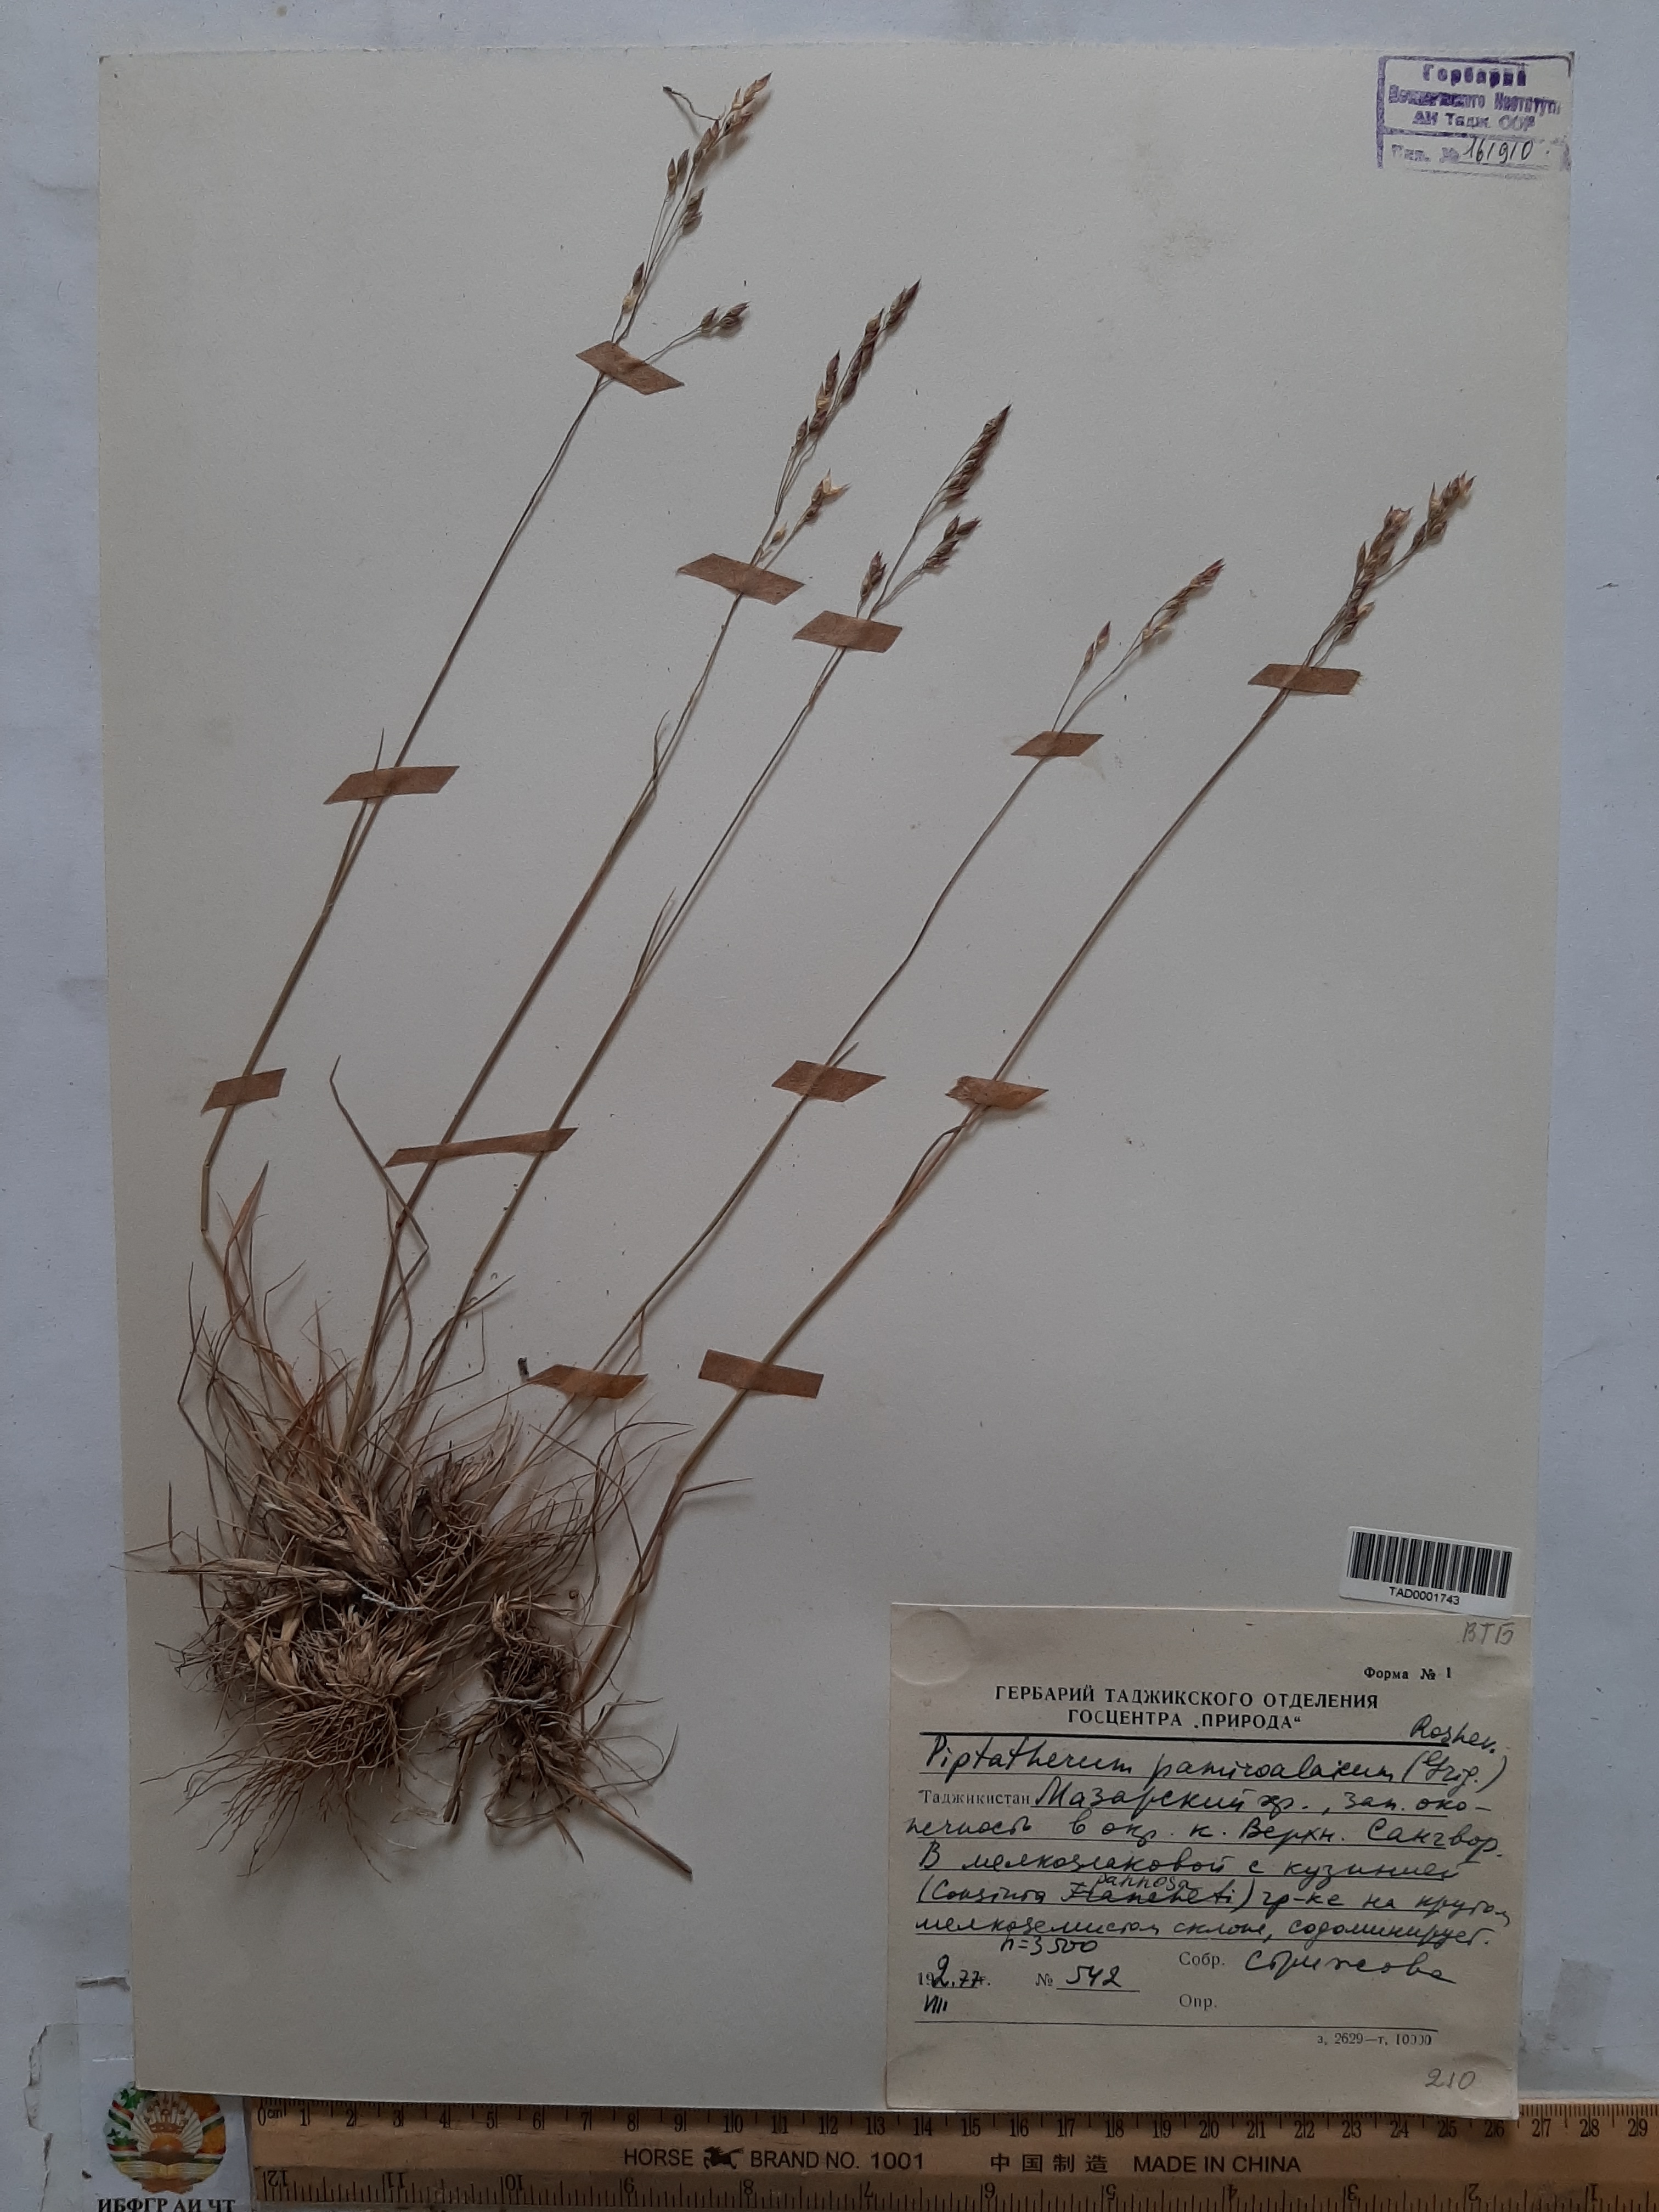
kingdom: Plantae
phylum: Tracheophyta
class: Liliopsida
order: Poales
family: Poaceae
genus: Piptatherum
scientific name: Piptatherum pamiralaicum
